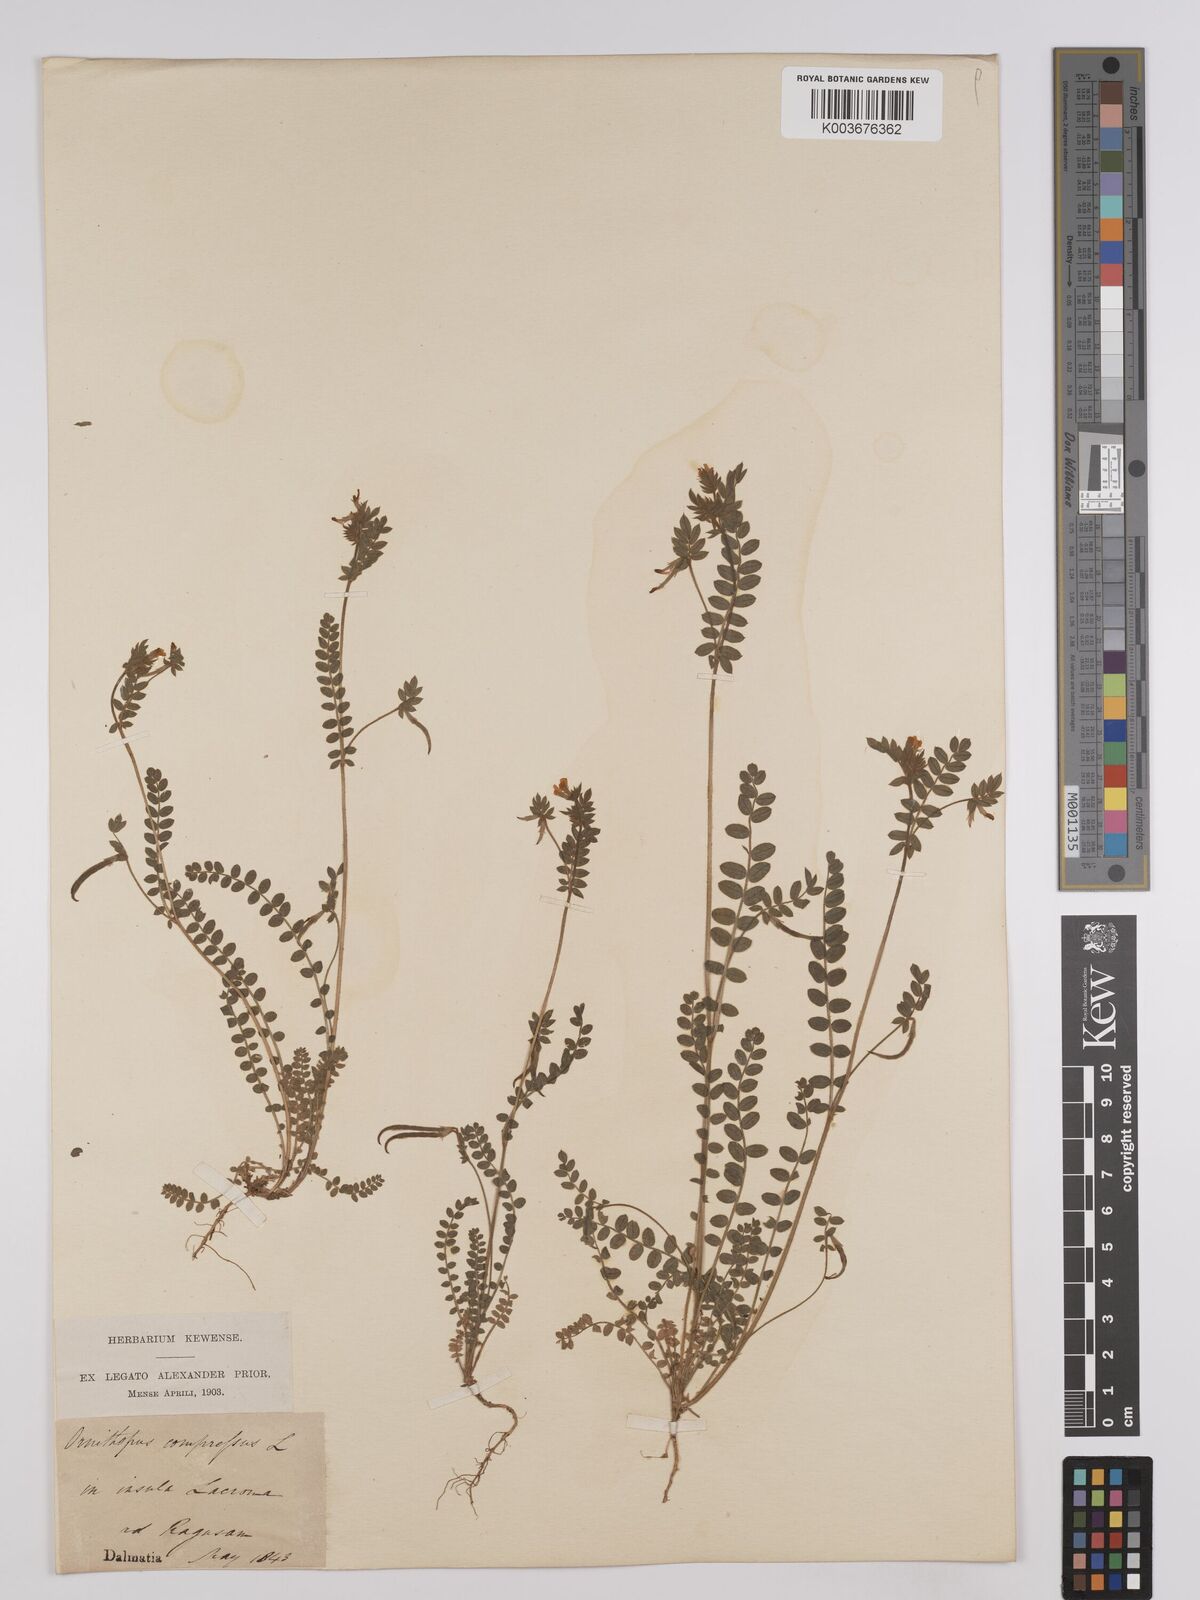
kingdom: Plantae
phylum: Tracheophyta
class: Magnoliopsida
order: Fabales
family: Fabaceae
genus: Ornithopus
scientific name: Ornithopus compressus
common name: Yellow serradella
